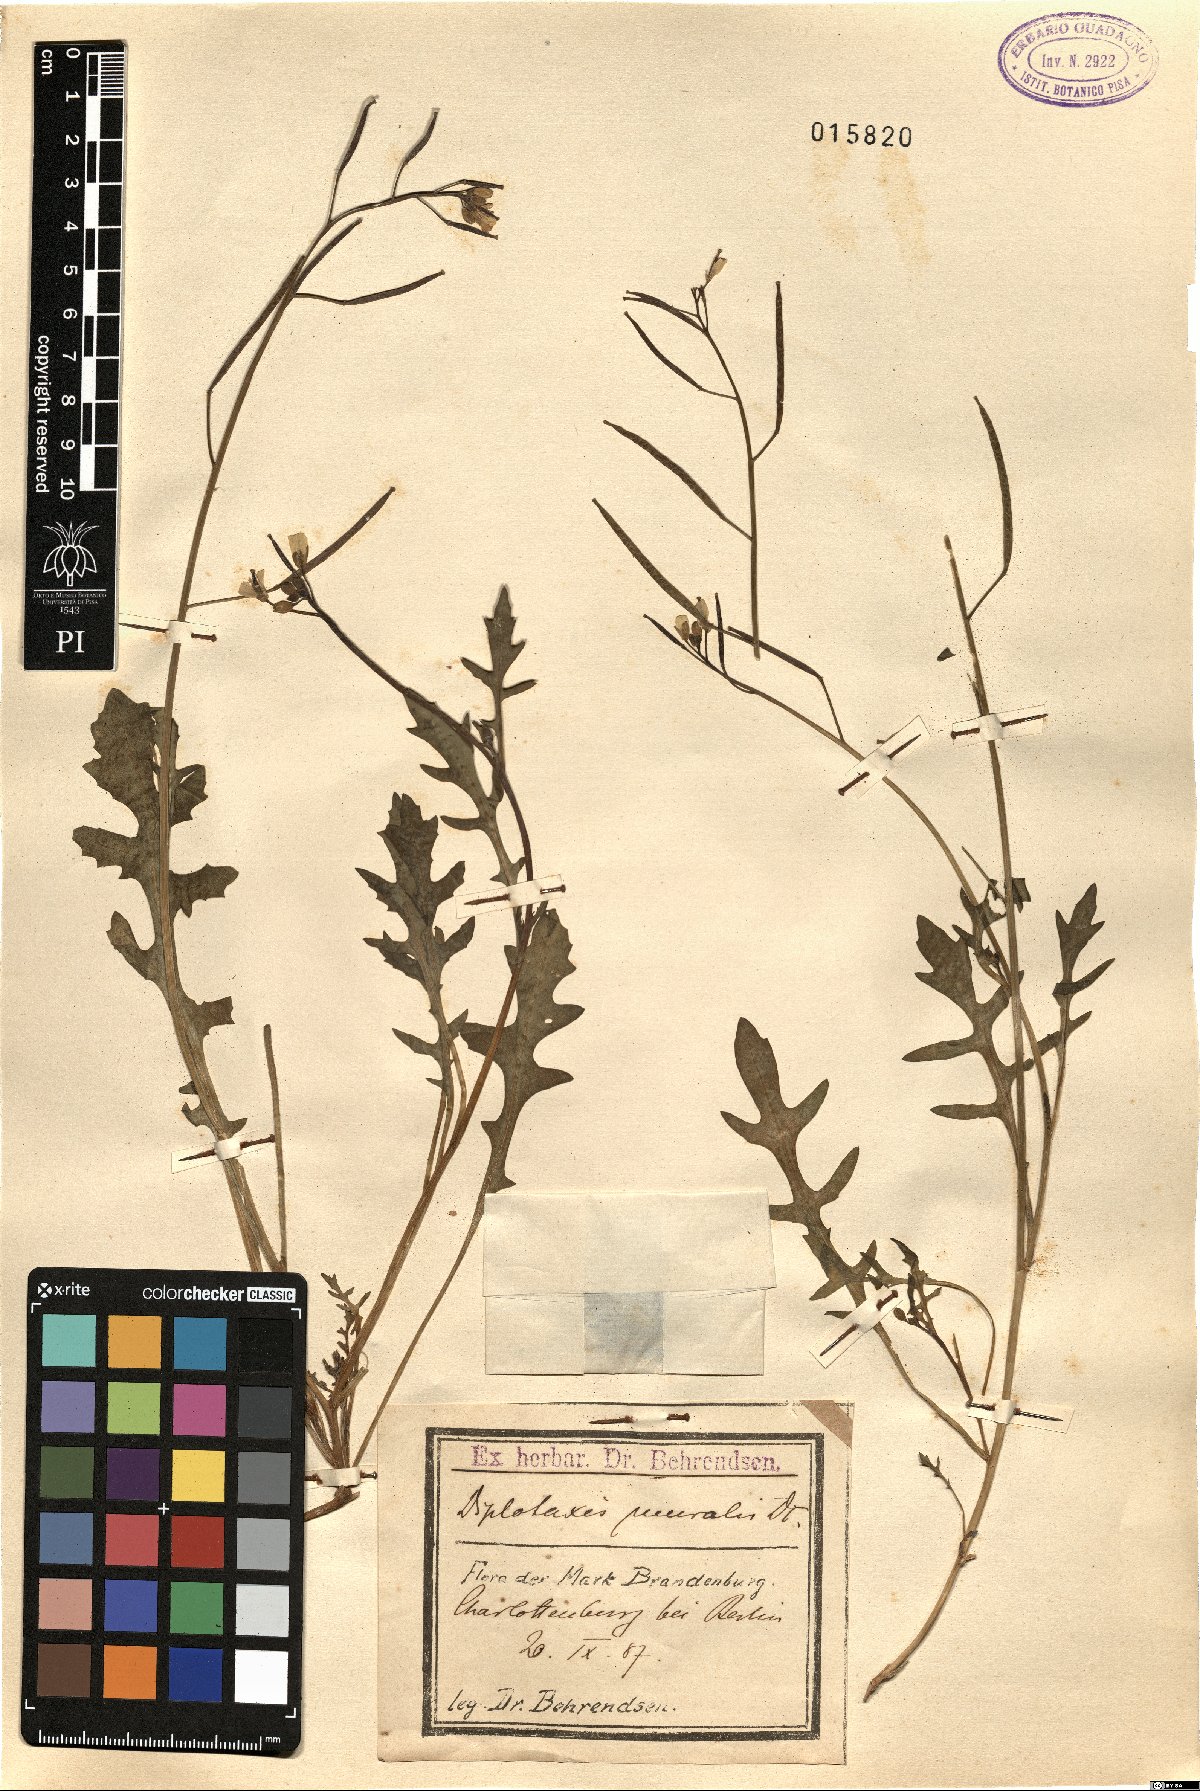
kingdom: Plantae
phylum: Tracheophyta
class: Magnoliopsida
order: Brassicales
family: Brassicaceae
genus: Diplotaxis
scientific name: Diplotaxis muralis
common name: Annual wall-rocket
